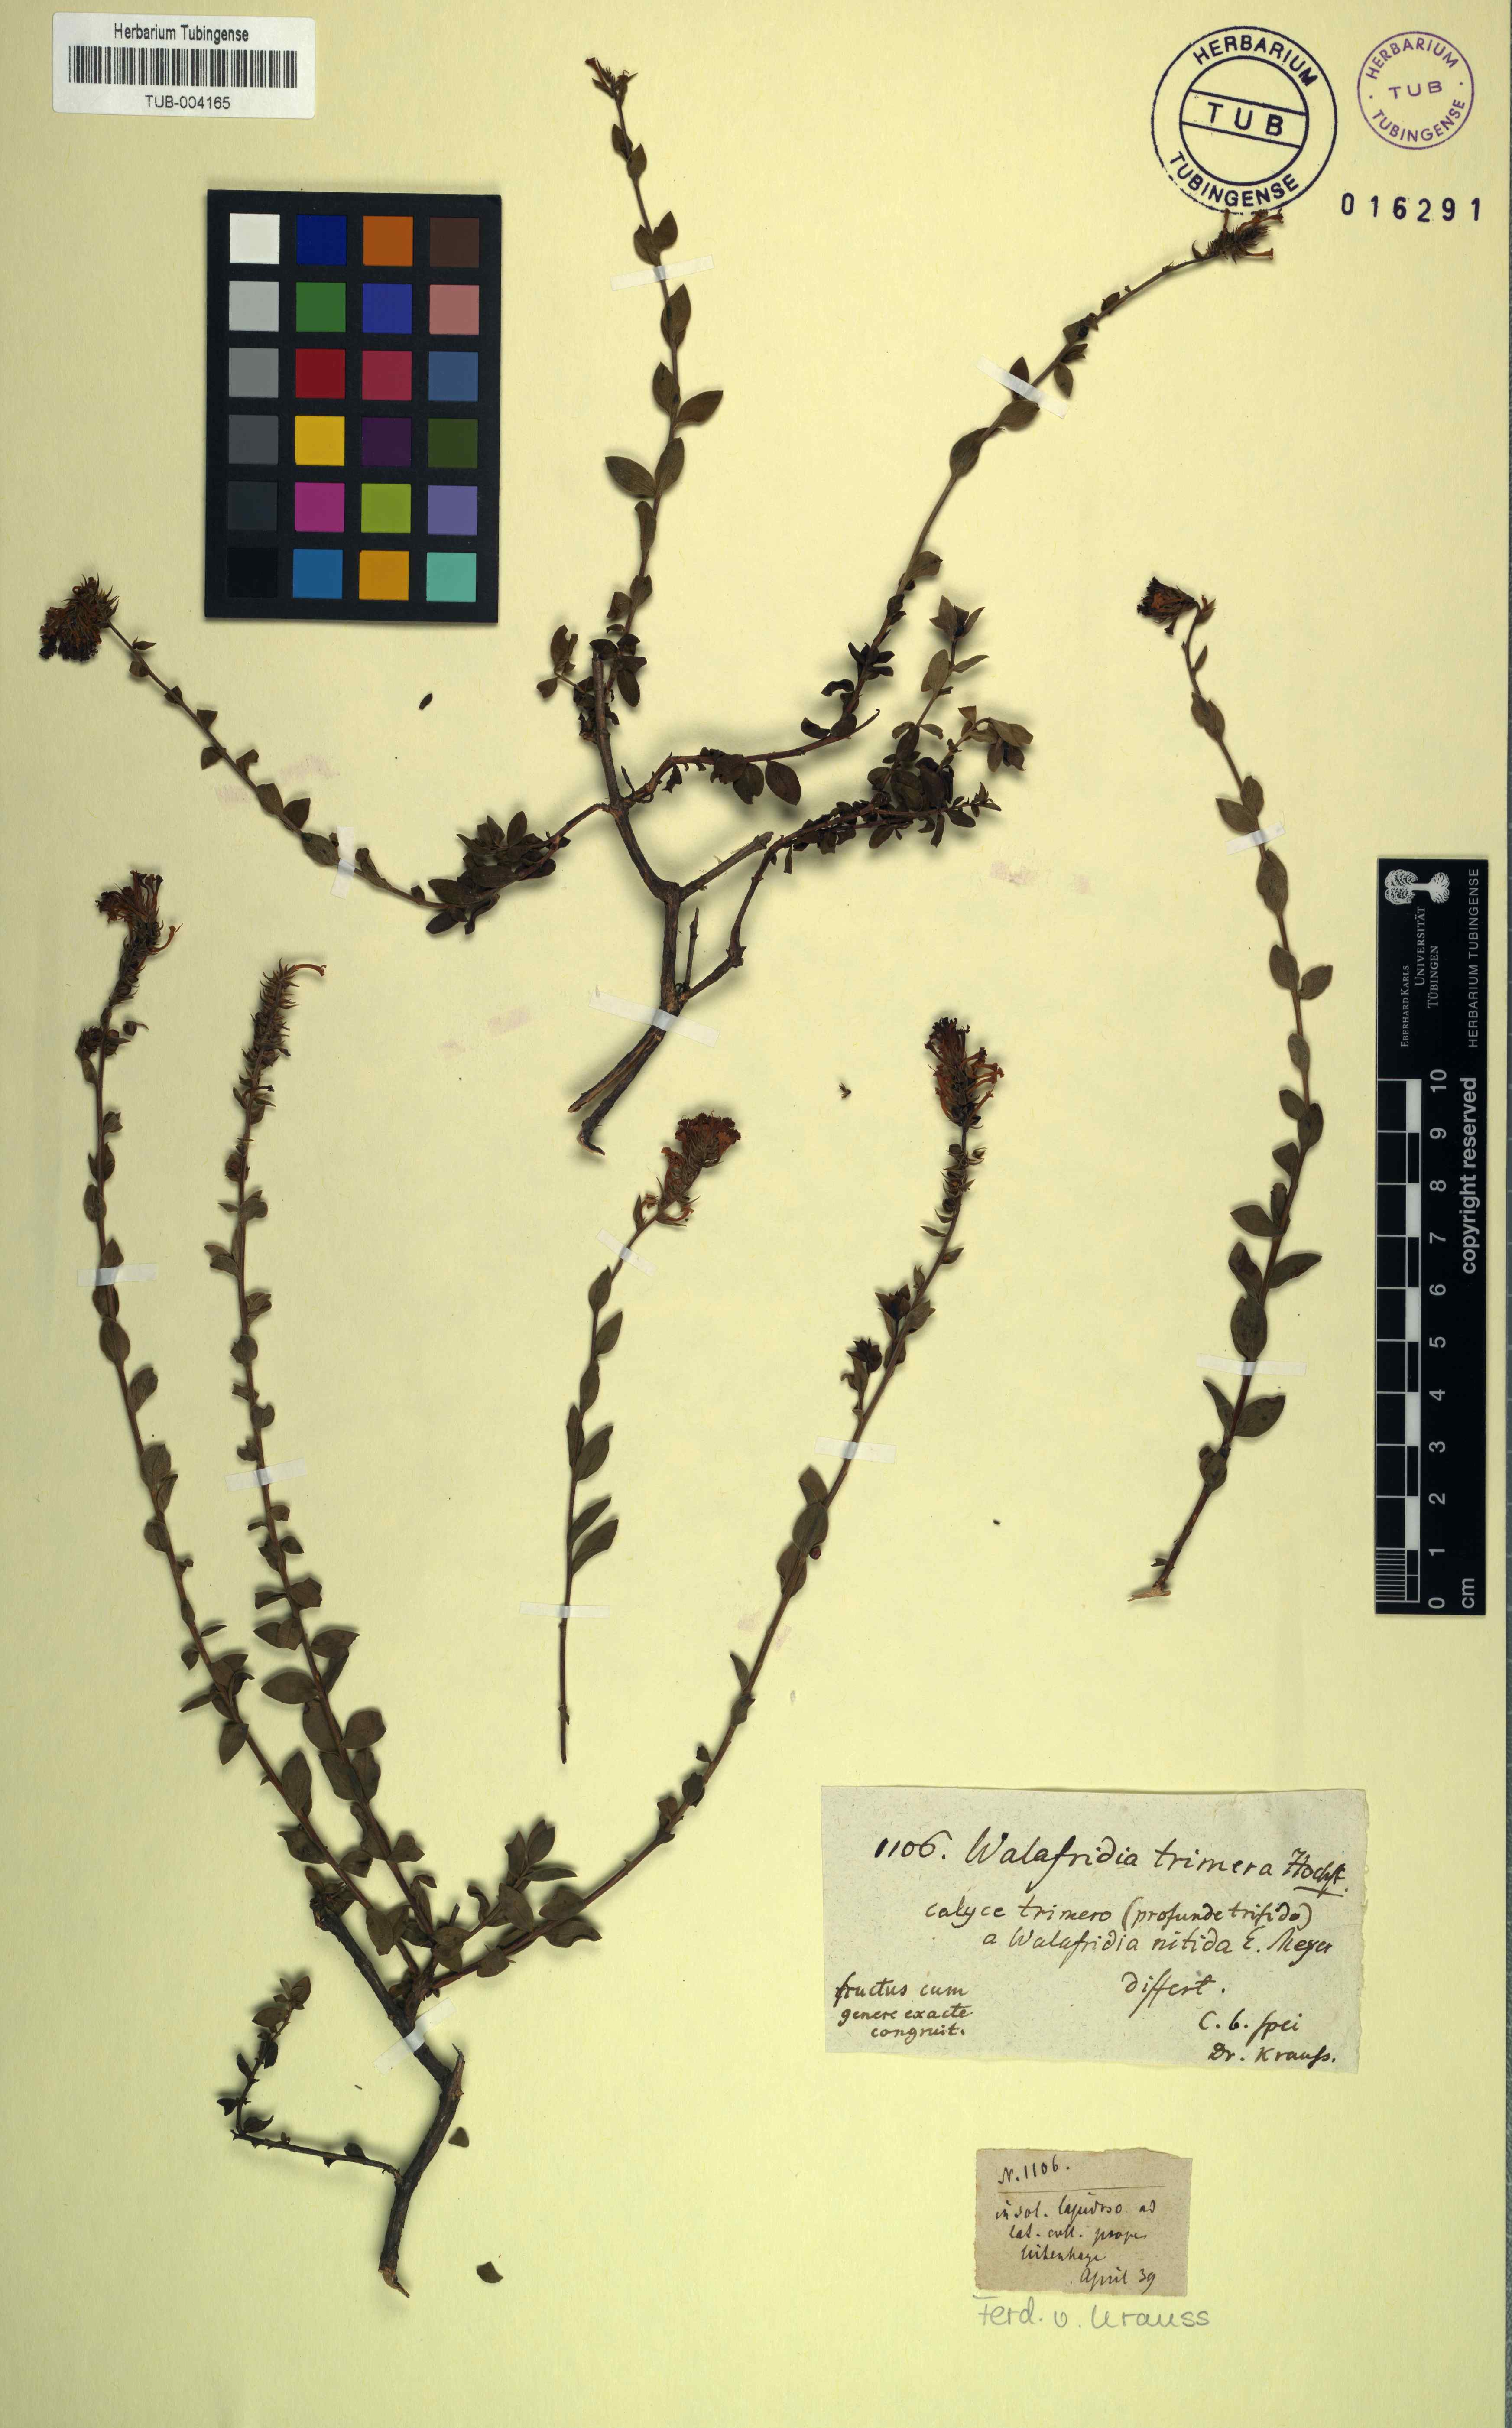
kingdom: Plantae
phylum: Tracheophyta
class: Magnoliopsida
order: Lamiales
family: Scrophulariaceae
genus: Selago
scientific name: Selago myrtifolia
